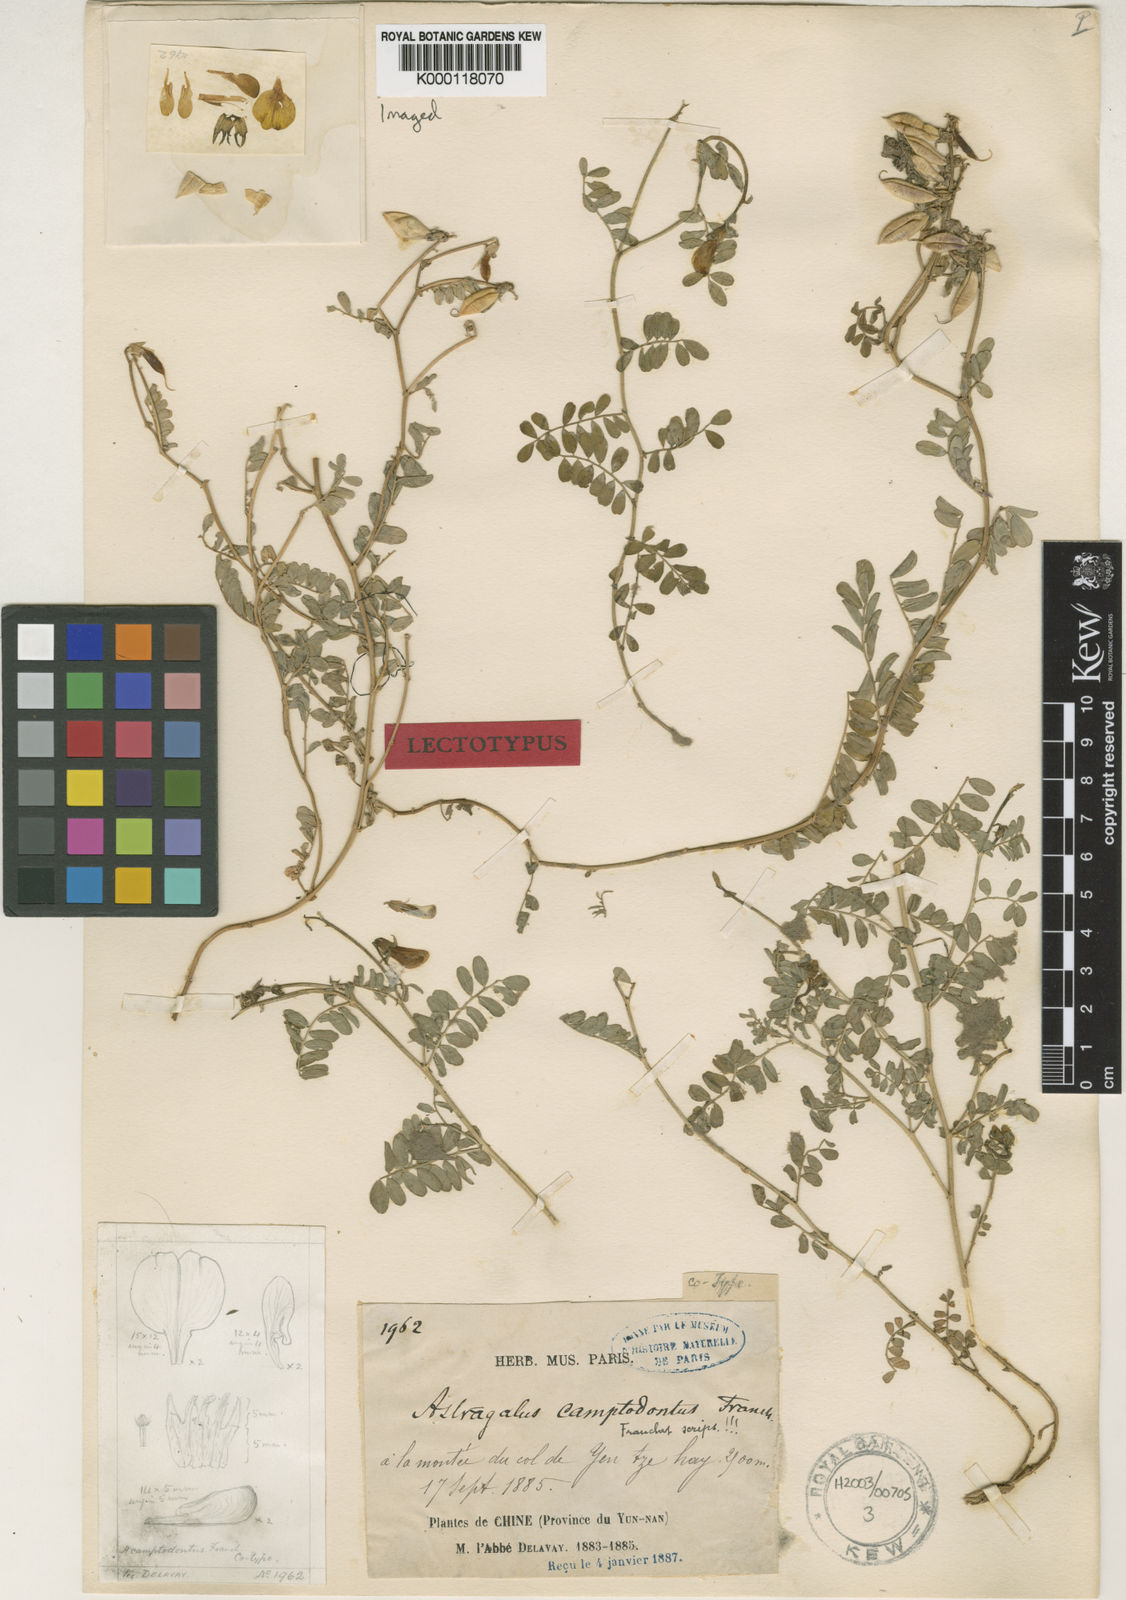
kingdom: Plantae
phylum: Tracheophyta
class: Magnoliopsida
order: Fabales
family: Fabaceae
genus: Astragalus
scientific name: Astragalus
